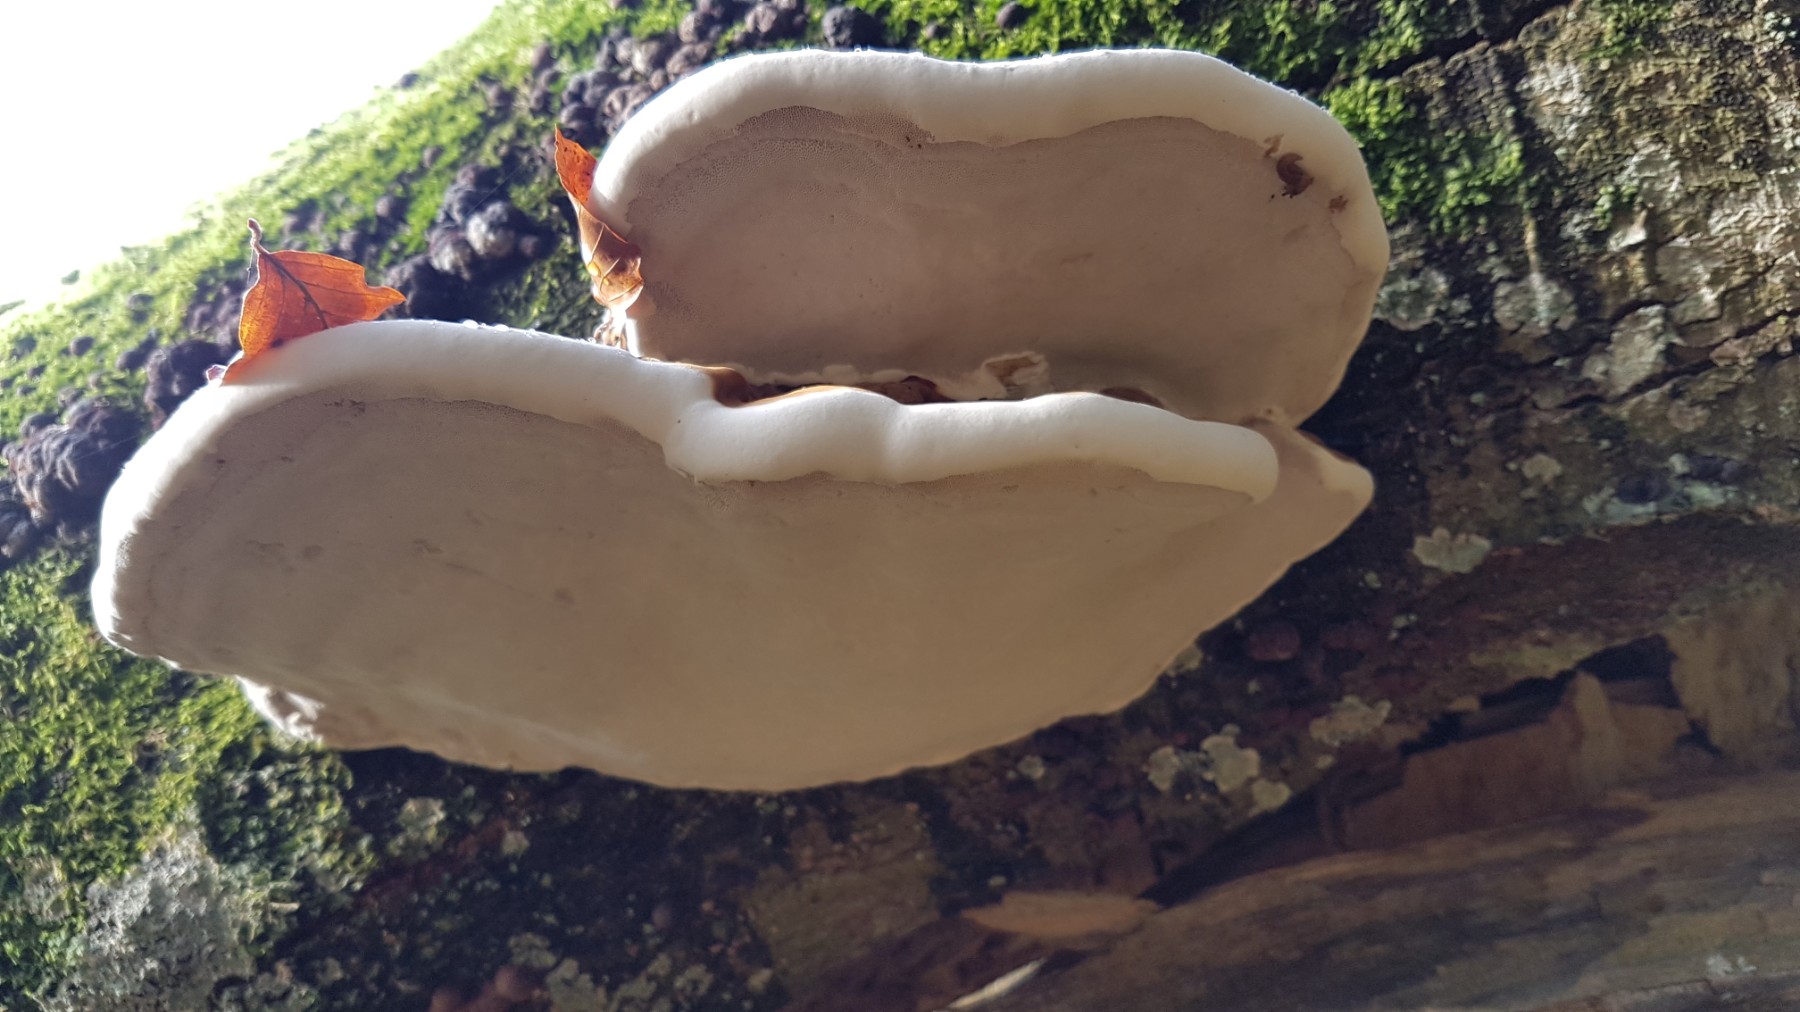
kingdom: Fungi
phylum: Basidiomycota
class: Agaricomycetes
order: Polyporales
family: Polyporaceae
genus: Fomes
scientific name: Fomes fomentarius
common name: tøndersvamp
